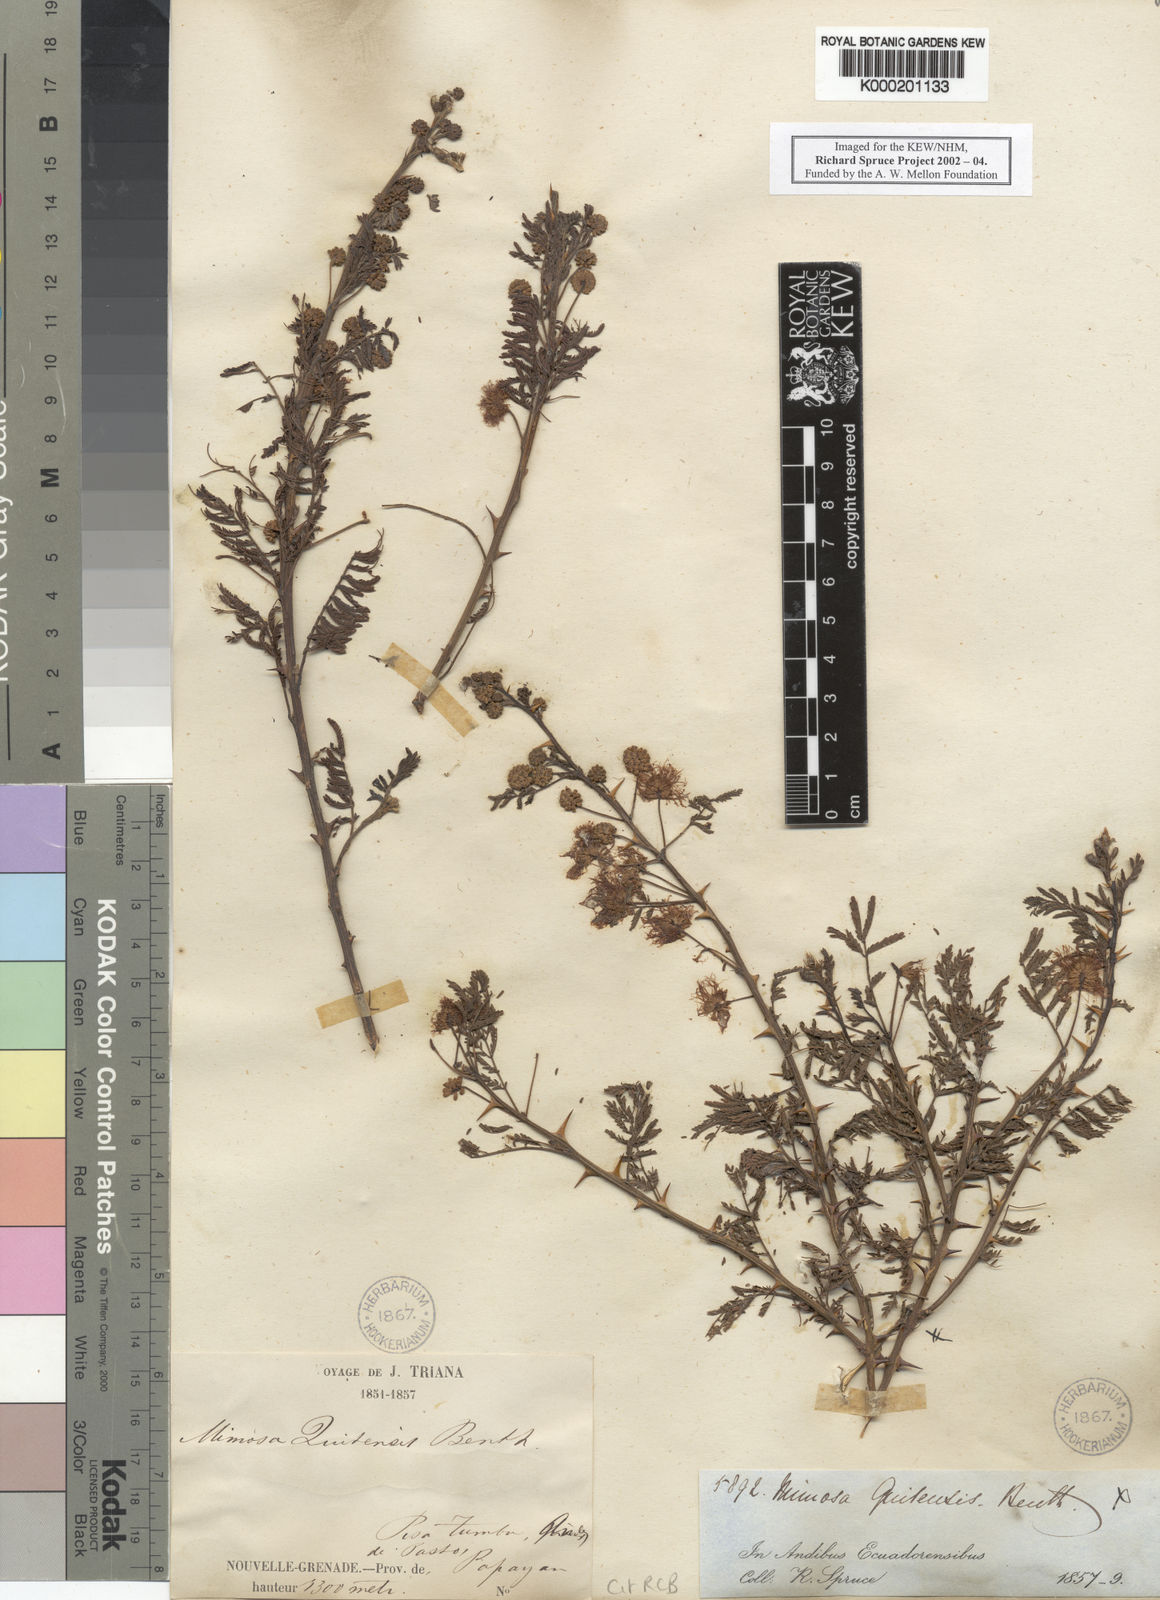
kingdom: Plantae
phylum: Tracheophyta
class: Magnoliopsida
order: Fabales
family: Fabaceae
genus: Mimosa
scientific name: Mimosa quitensis
